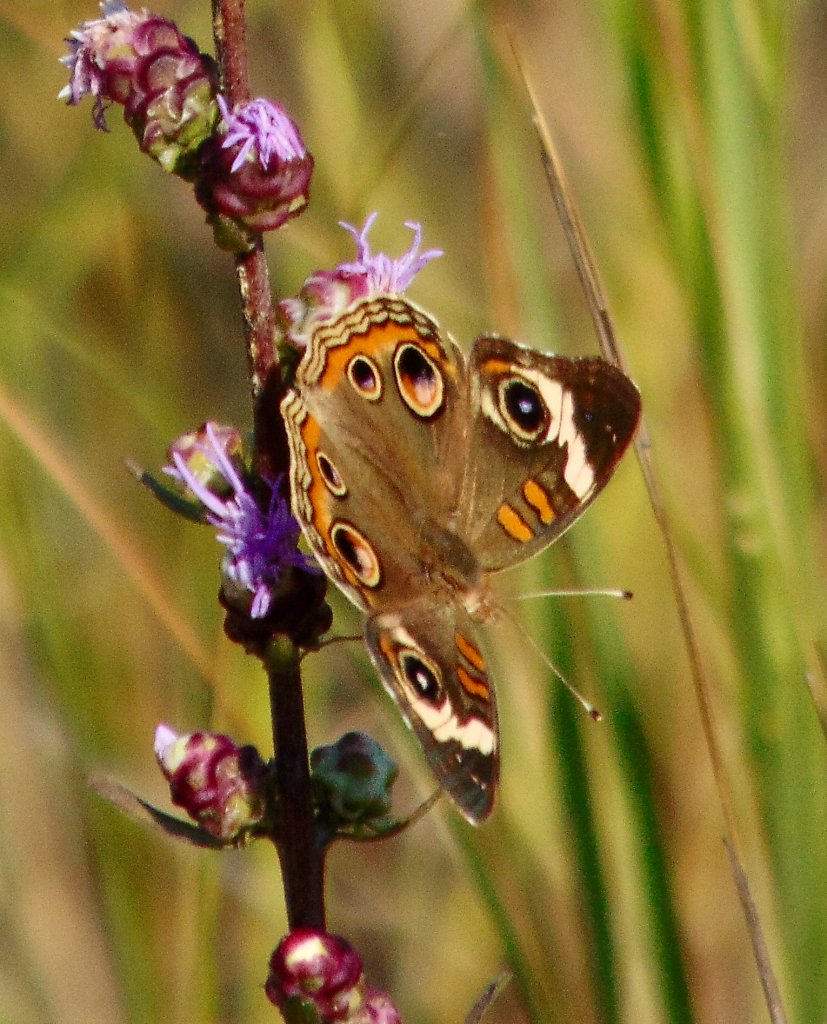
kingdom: Animalia
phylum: Arthropoda
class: Insecta
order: Lepidoptera
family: Nymphalidae
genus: Junonia
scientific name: Junonia coenia
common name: Common Buckeye
